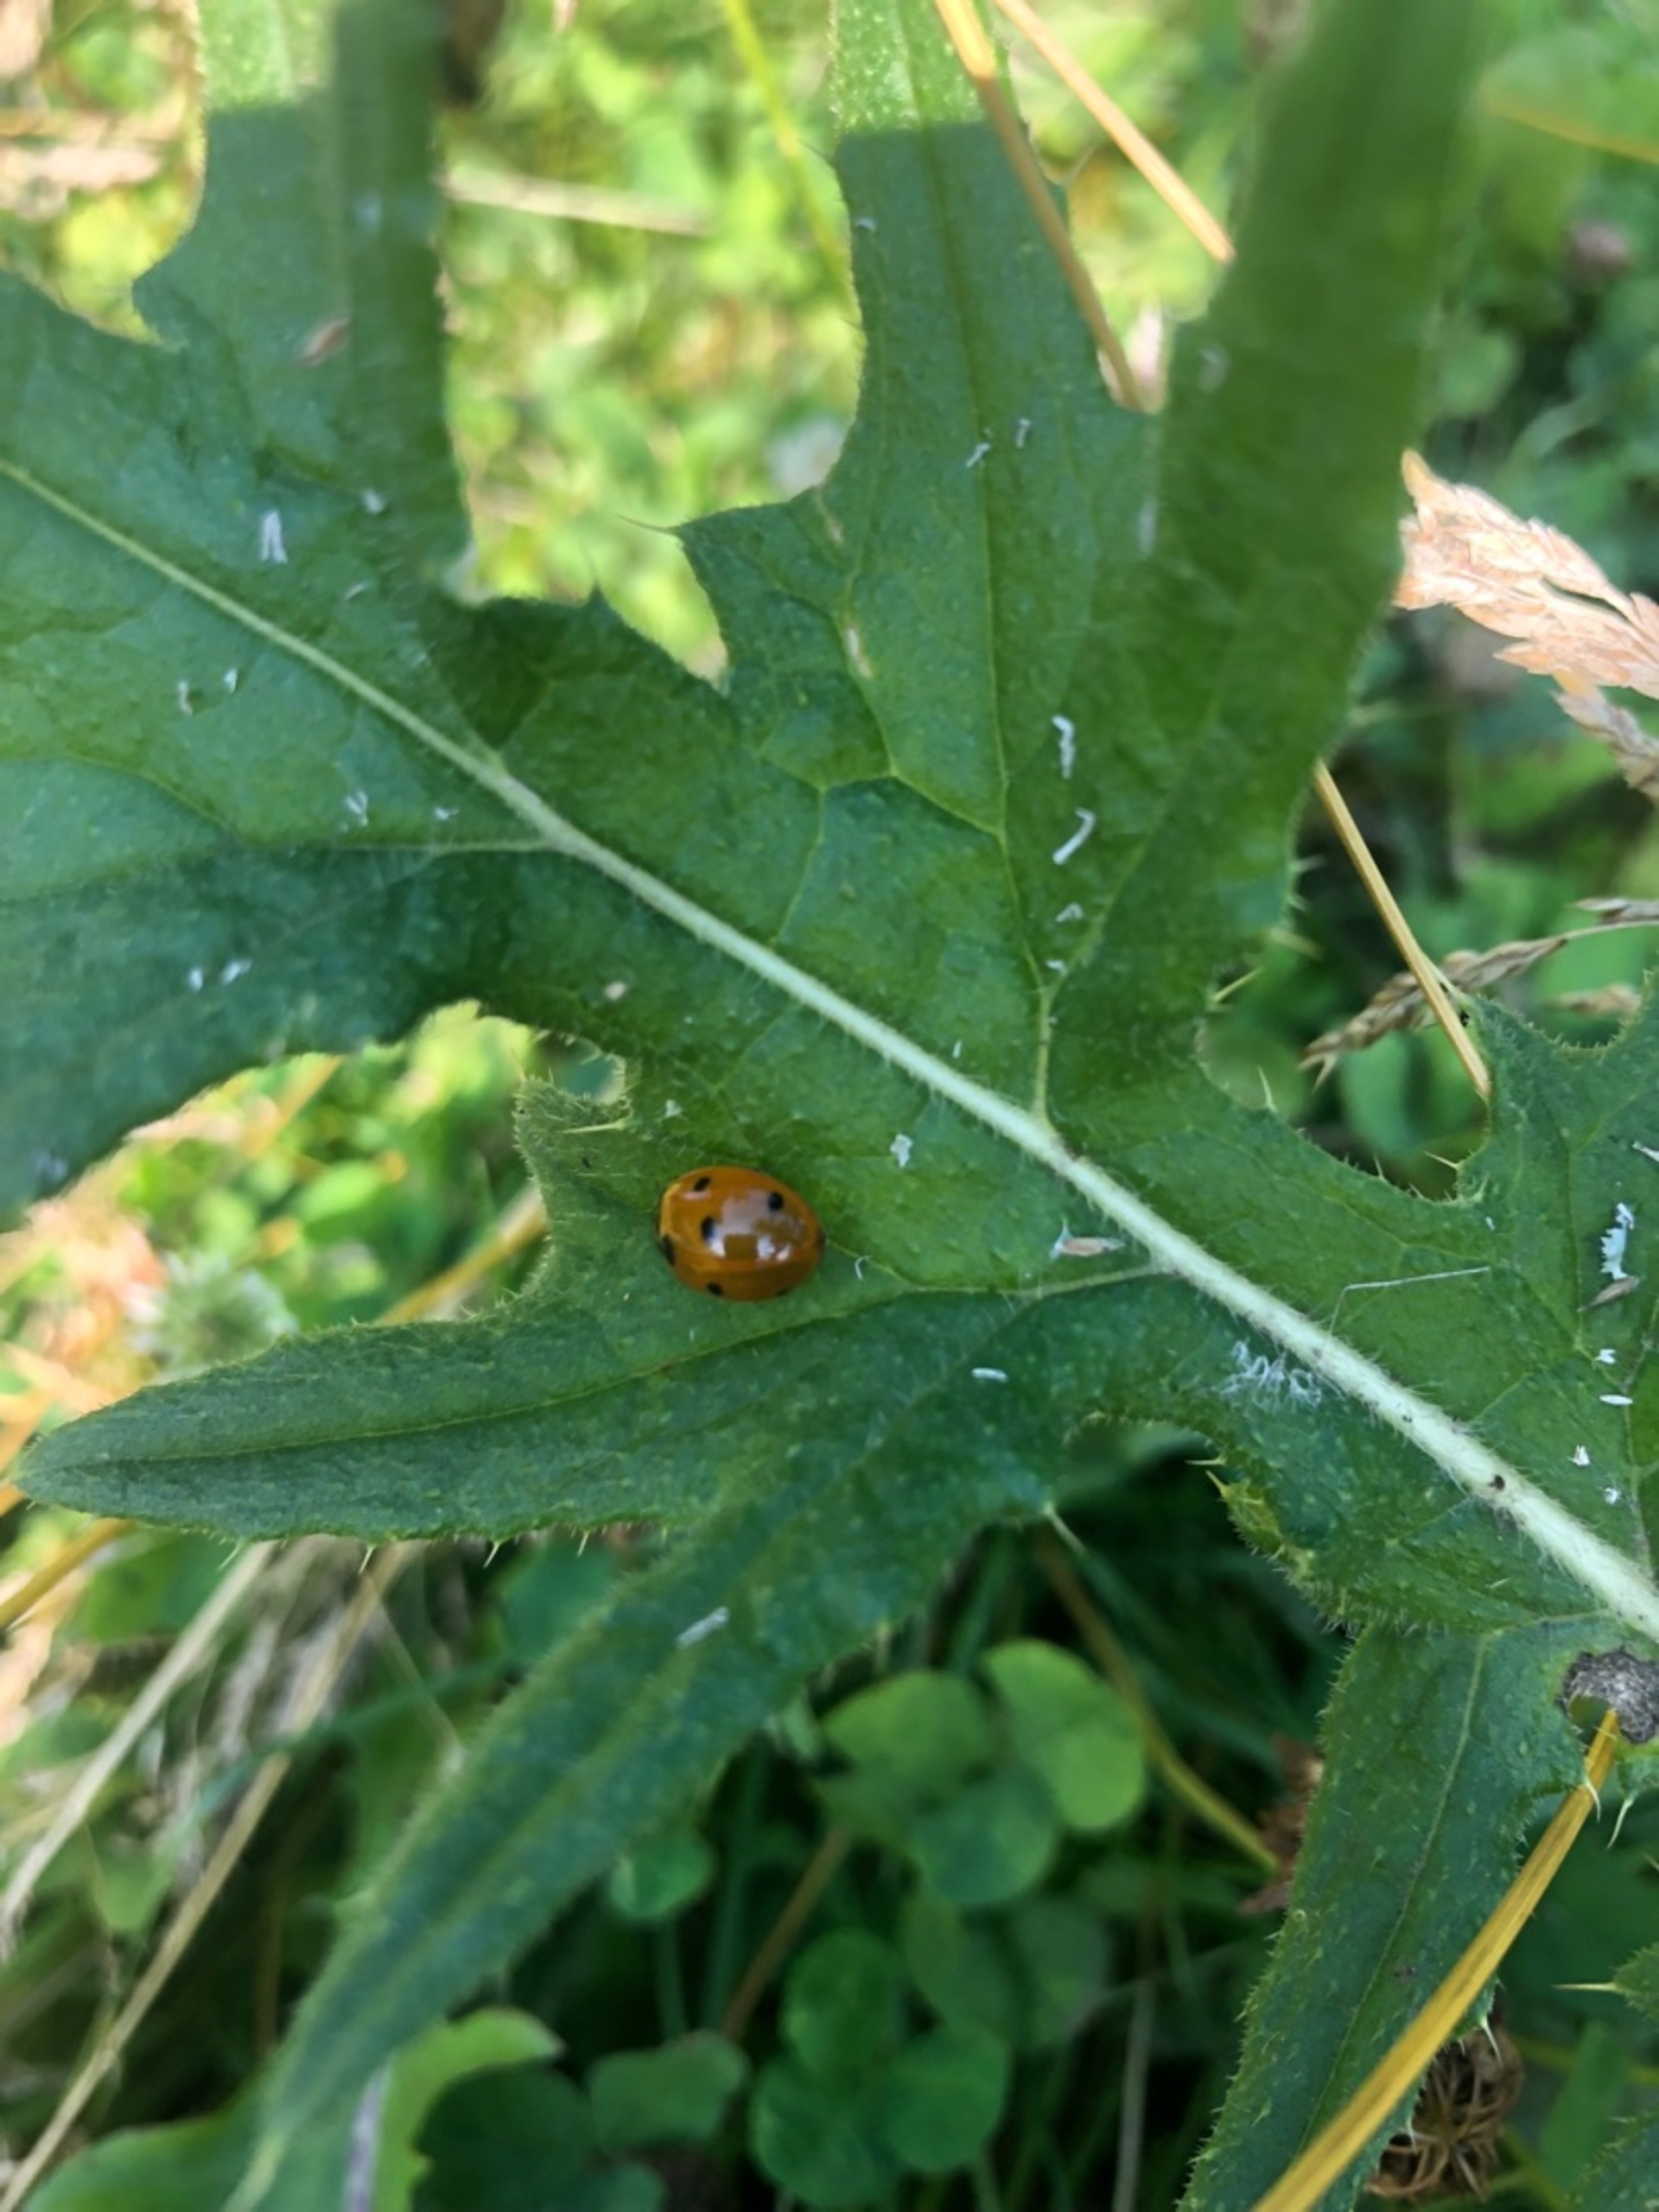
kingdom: Animalia
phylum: Arthropoda
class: Insecta
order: Coleoptera
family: Coccinellidae
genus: Coccinella
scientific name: Coccinella septempunctata
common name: Syvplettet mariehøne
